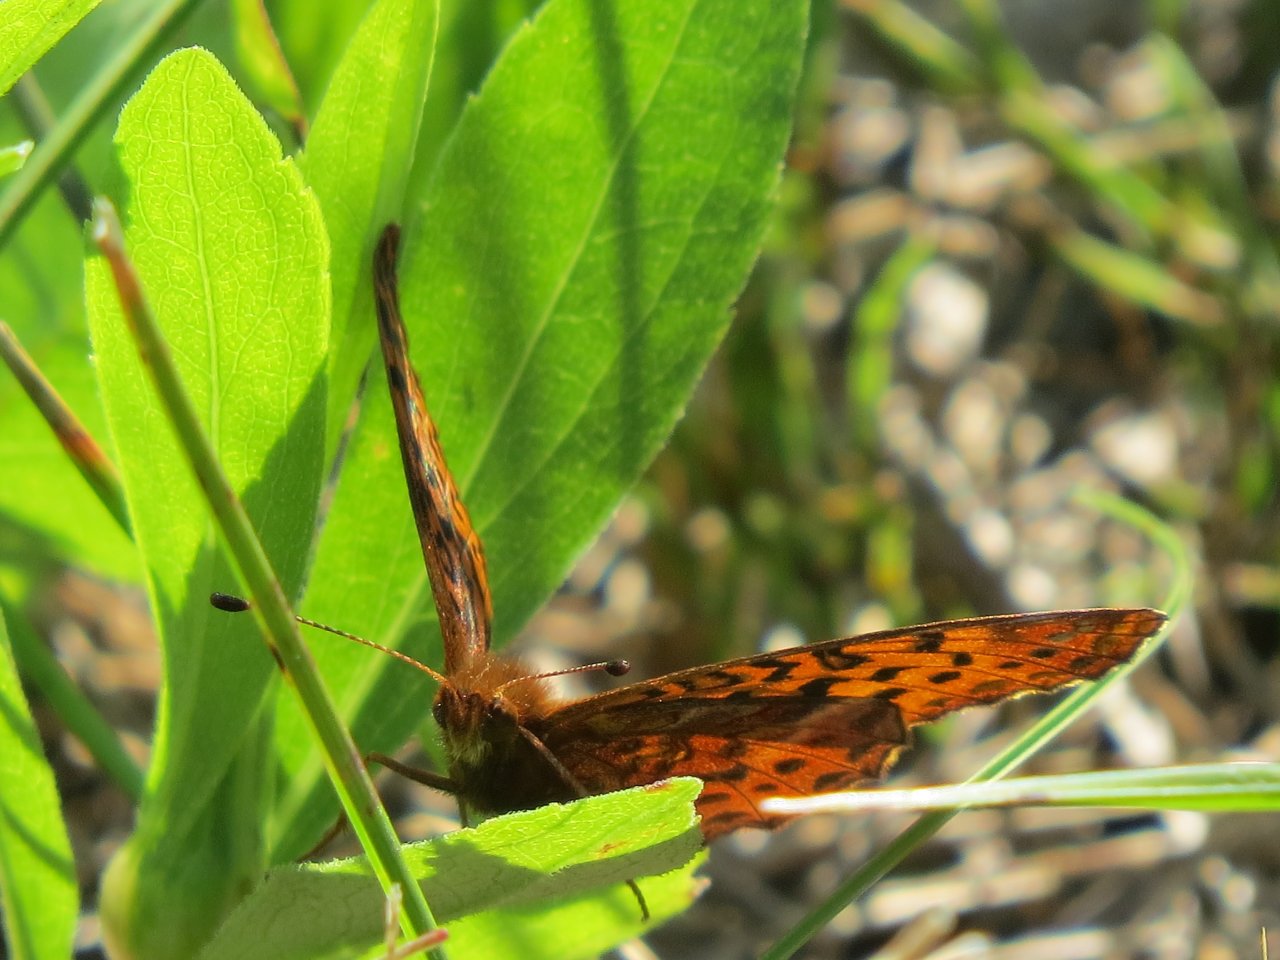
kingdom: Animalia
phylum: Arthropoda
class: Insecta
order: Lepidoptera
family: Nymphalidae
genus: Clossiana
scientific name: Clossiana toddi
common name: Meadow Fritillary
